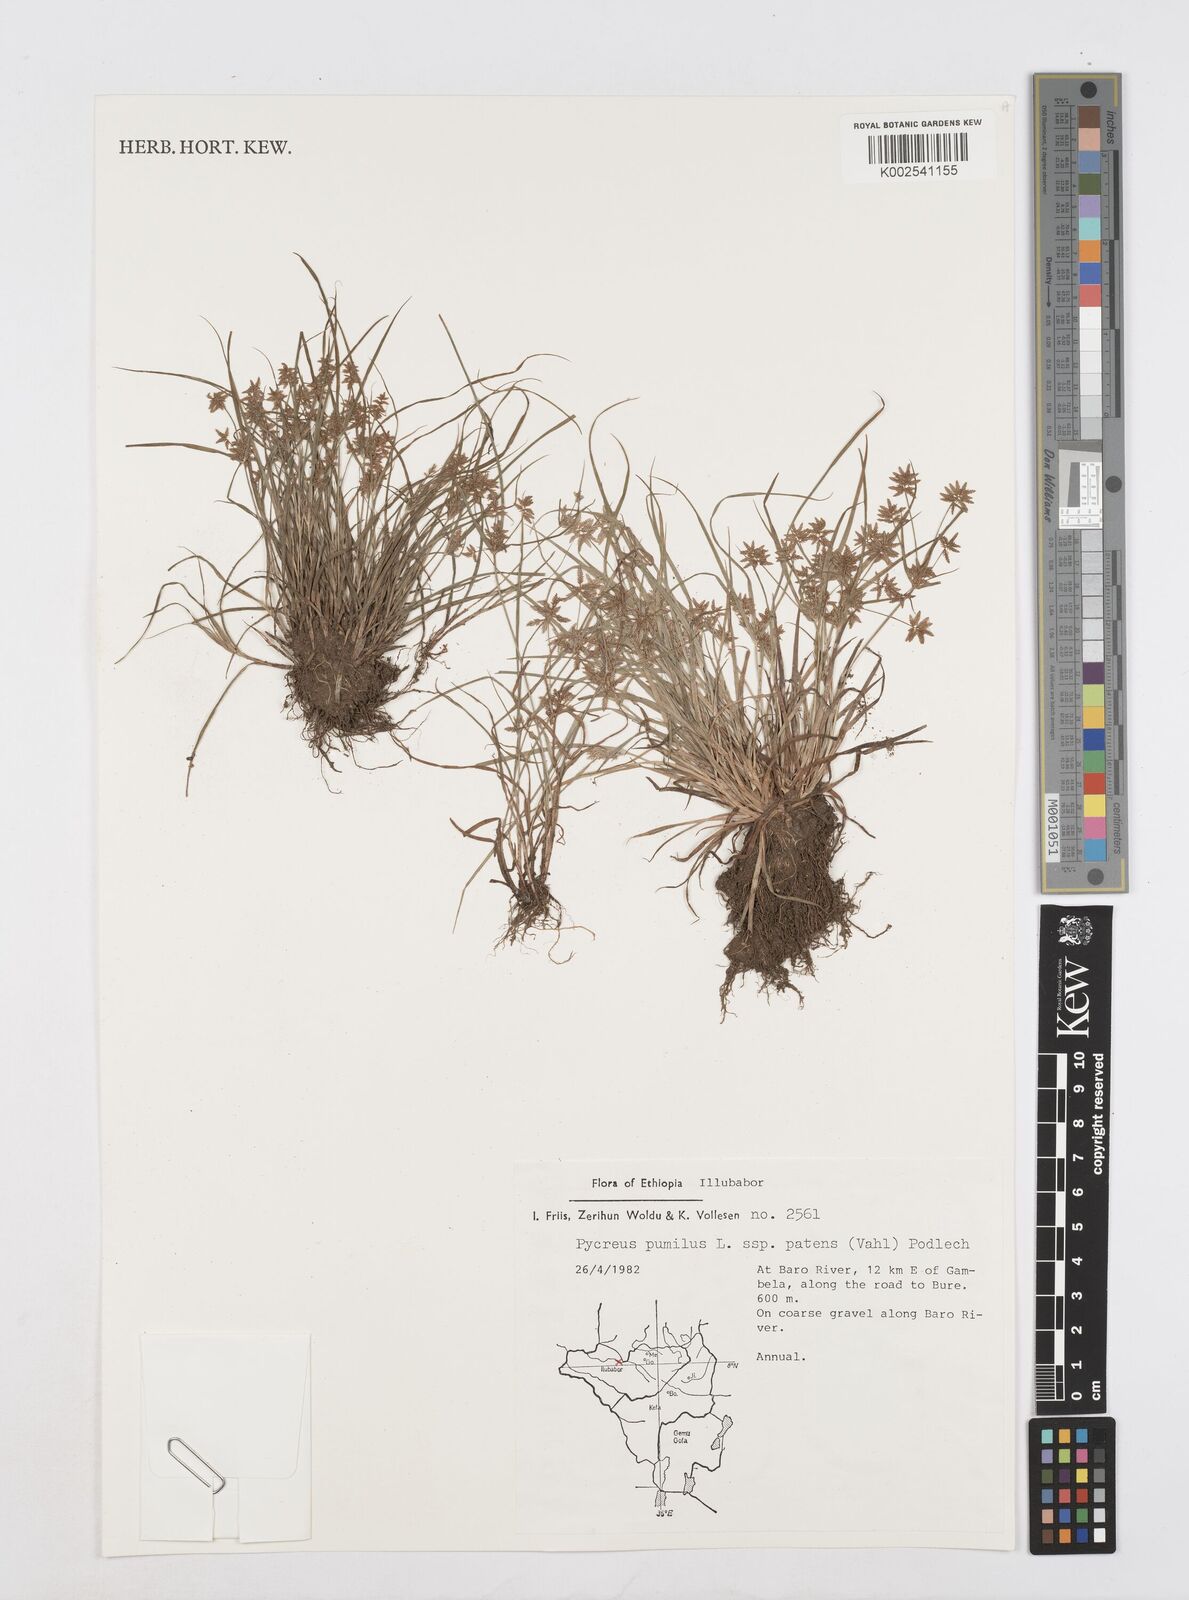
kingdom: Plantae
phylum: Tracheophyta
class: Liliopsida
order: Poales
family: Cyperaceae
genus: Cyperus
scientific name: Cyperus pumilus
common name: Low flatsedge
